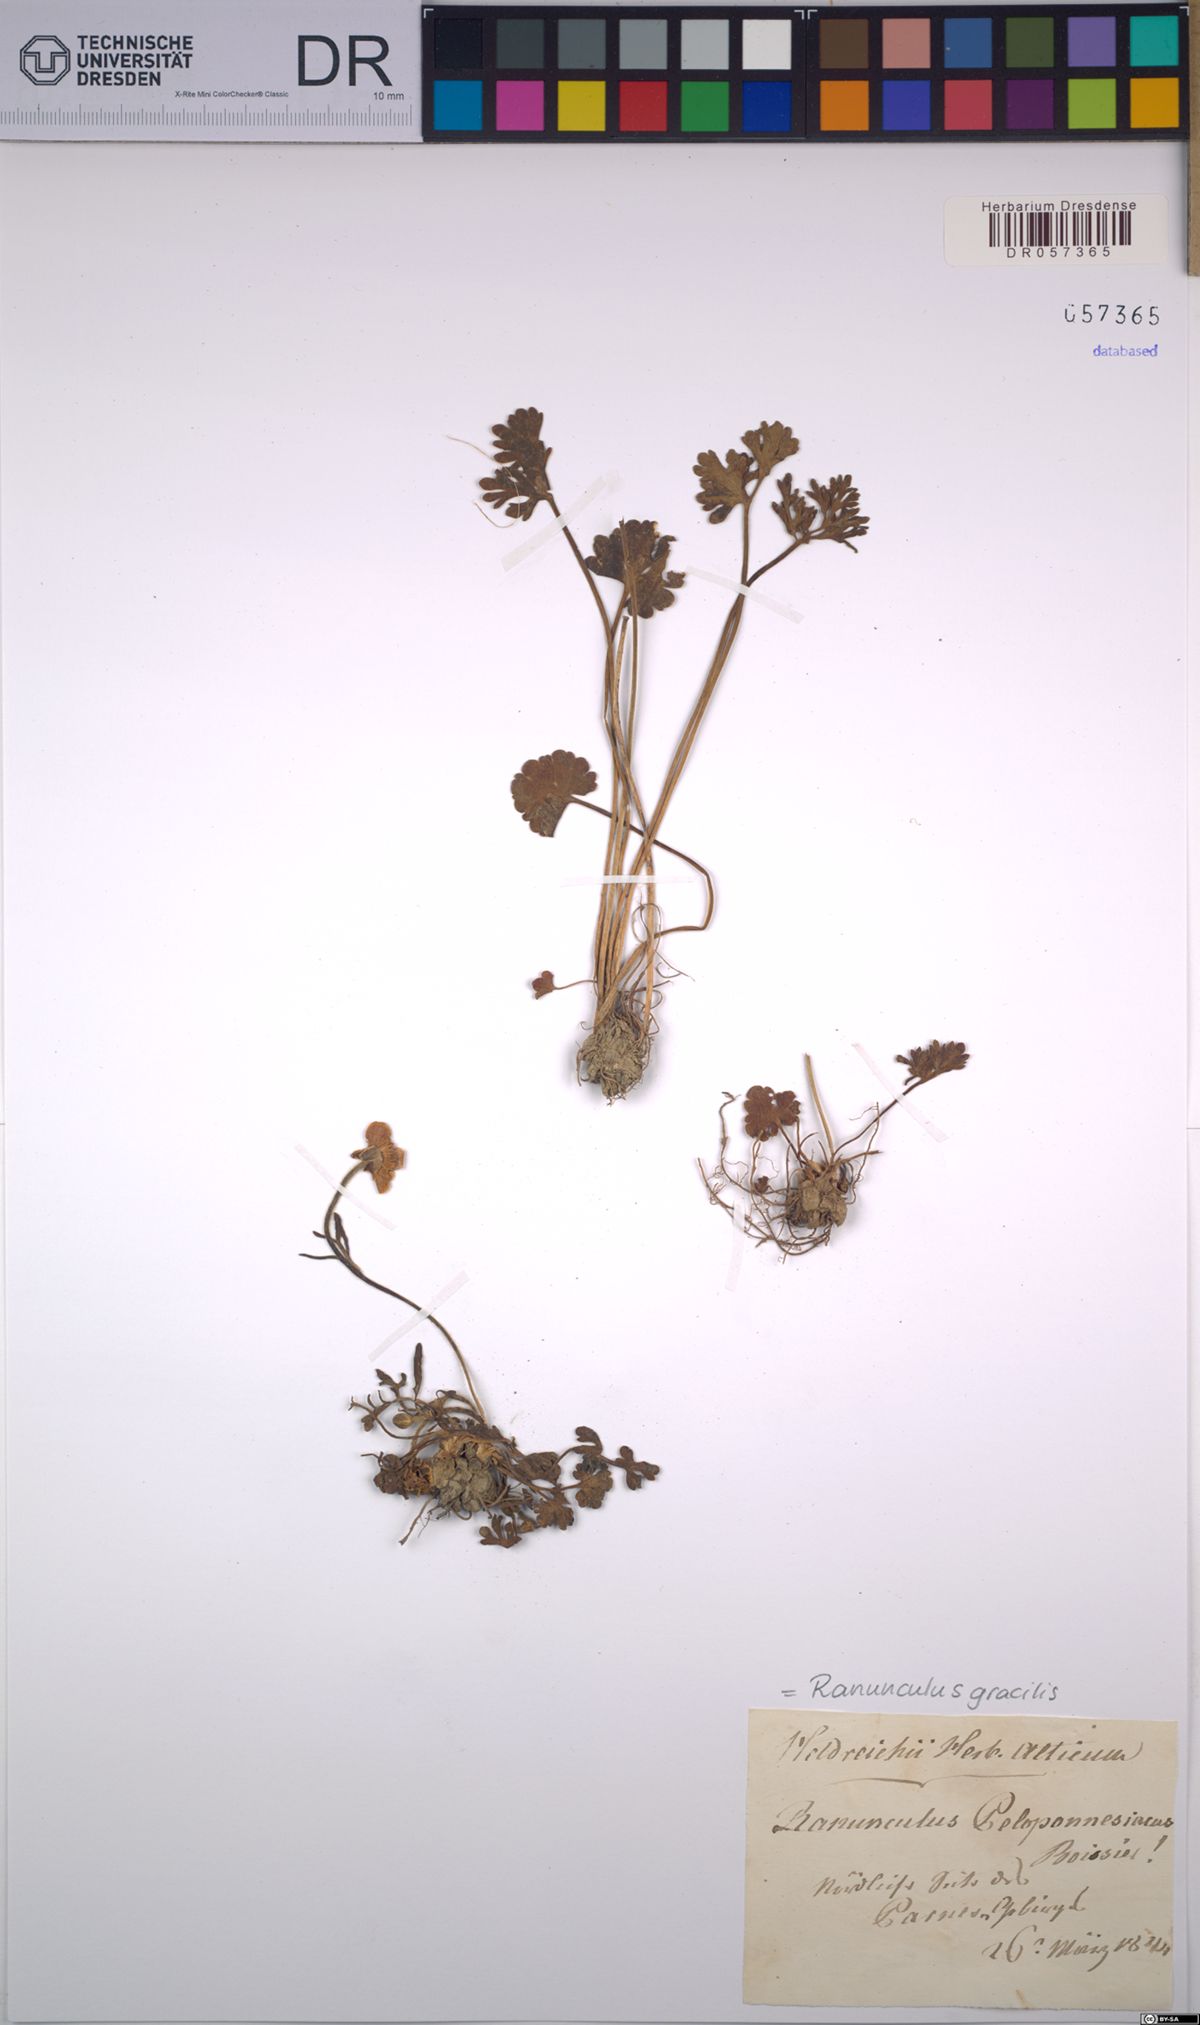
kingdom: Plantae
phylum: Tracheophyta
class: Magnoliopsida
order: Ranunculales
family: Ranunculaceae
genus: Ranunculus
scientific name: Ranunculus gracilis
